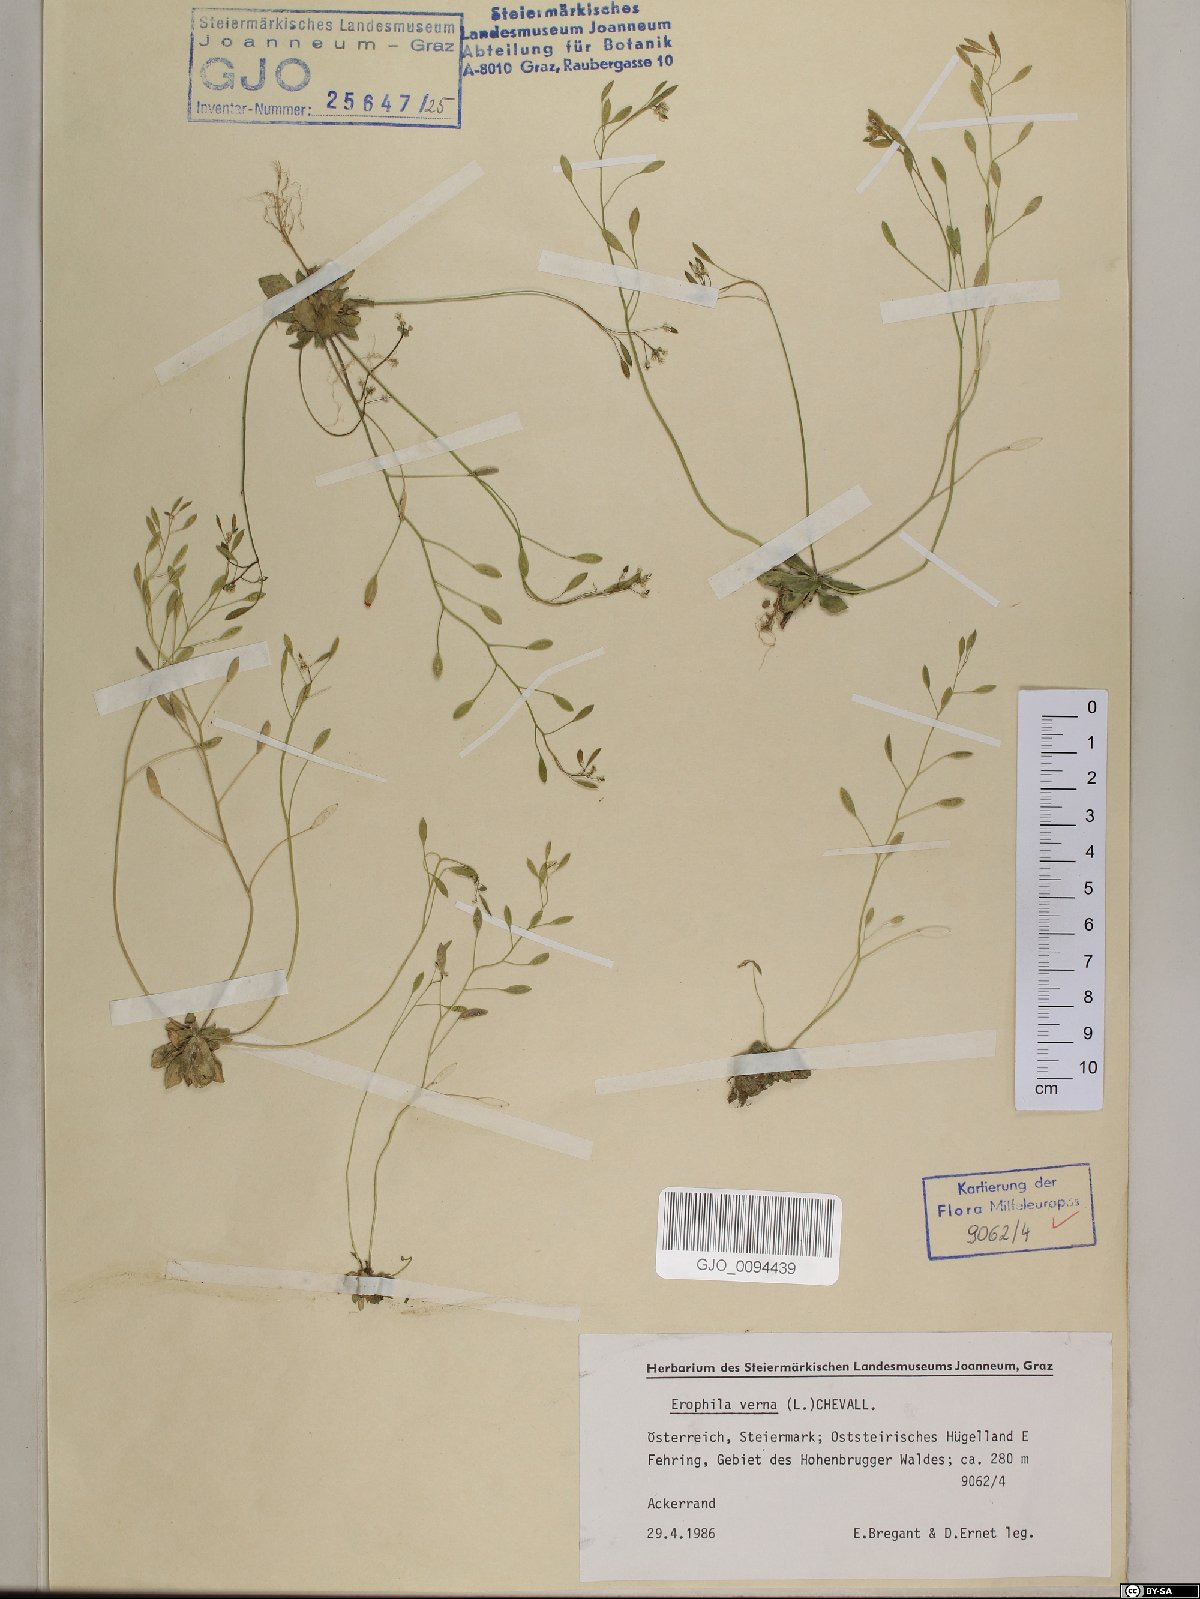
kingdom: Plantae
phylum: Tracheophyta
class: Magnoliopsida
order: Brassicales
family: Brassicaceae
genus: Draba
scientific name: Draba verna
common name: Spring draba
